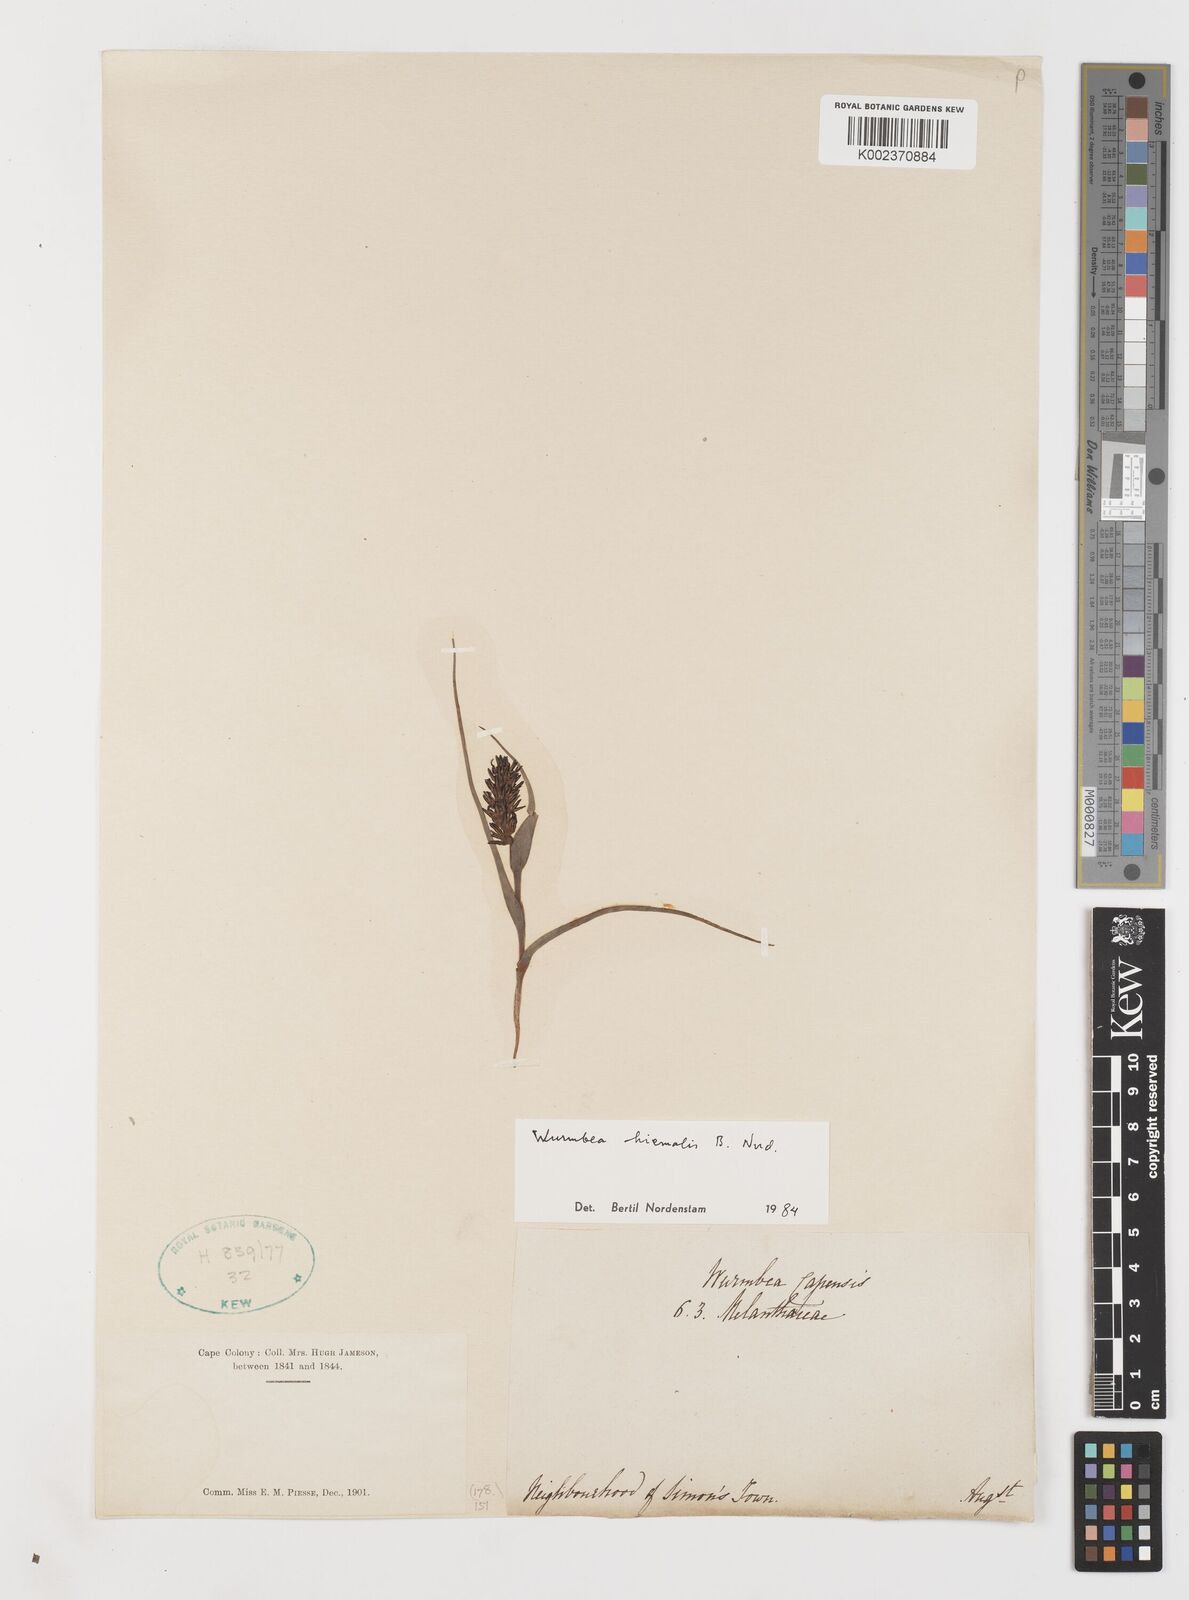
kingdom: Plantae
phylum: Tracheophyta
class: Liliopsida
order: Liliales
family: Colchicaceae
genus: Wurmbea
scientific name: Wurmbea hiemalis
